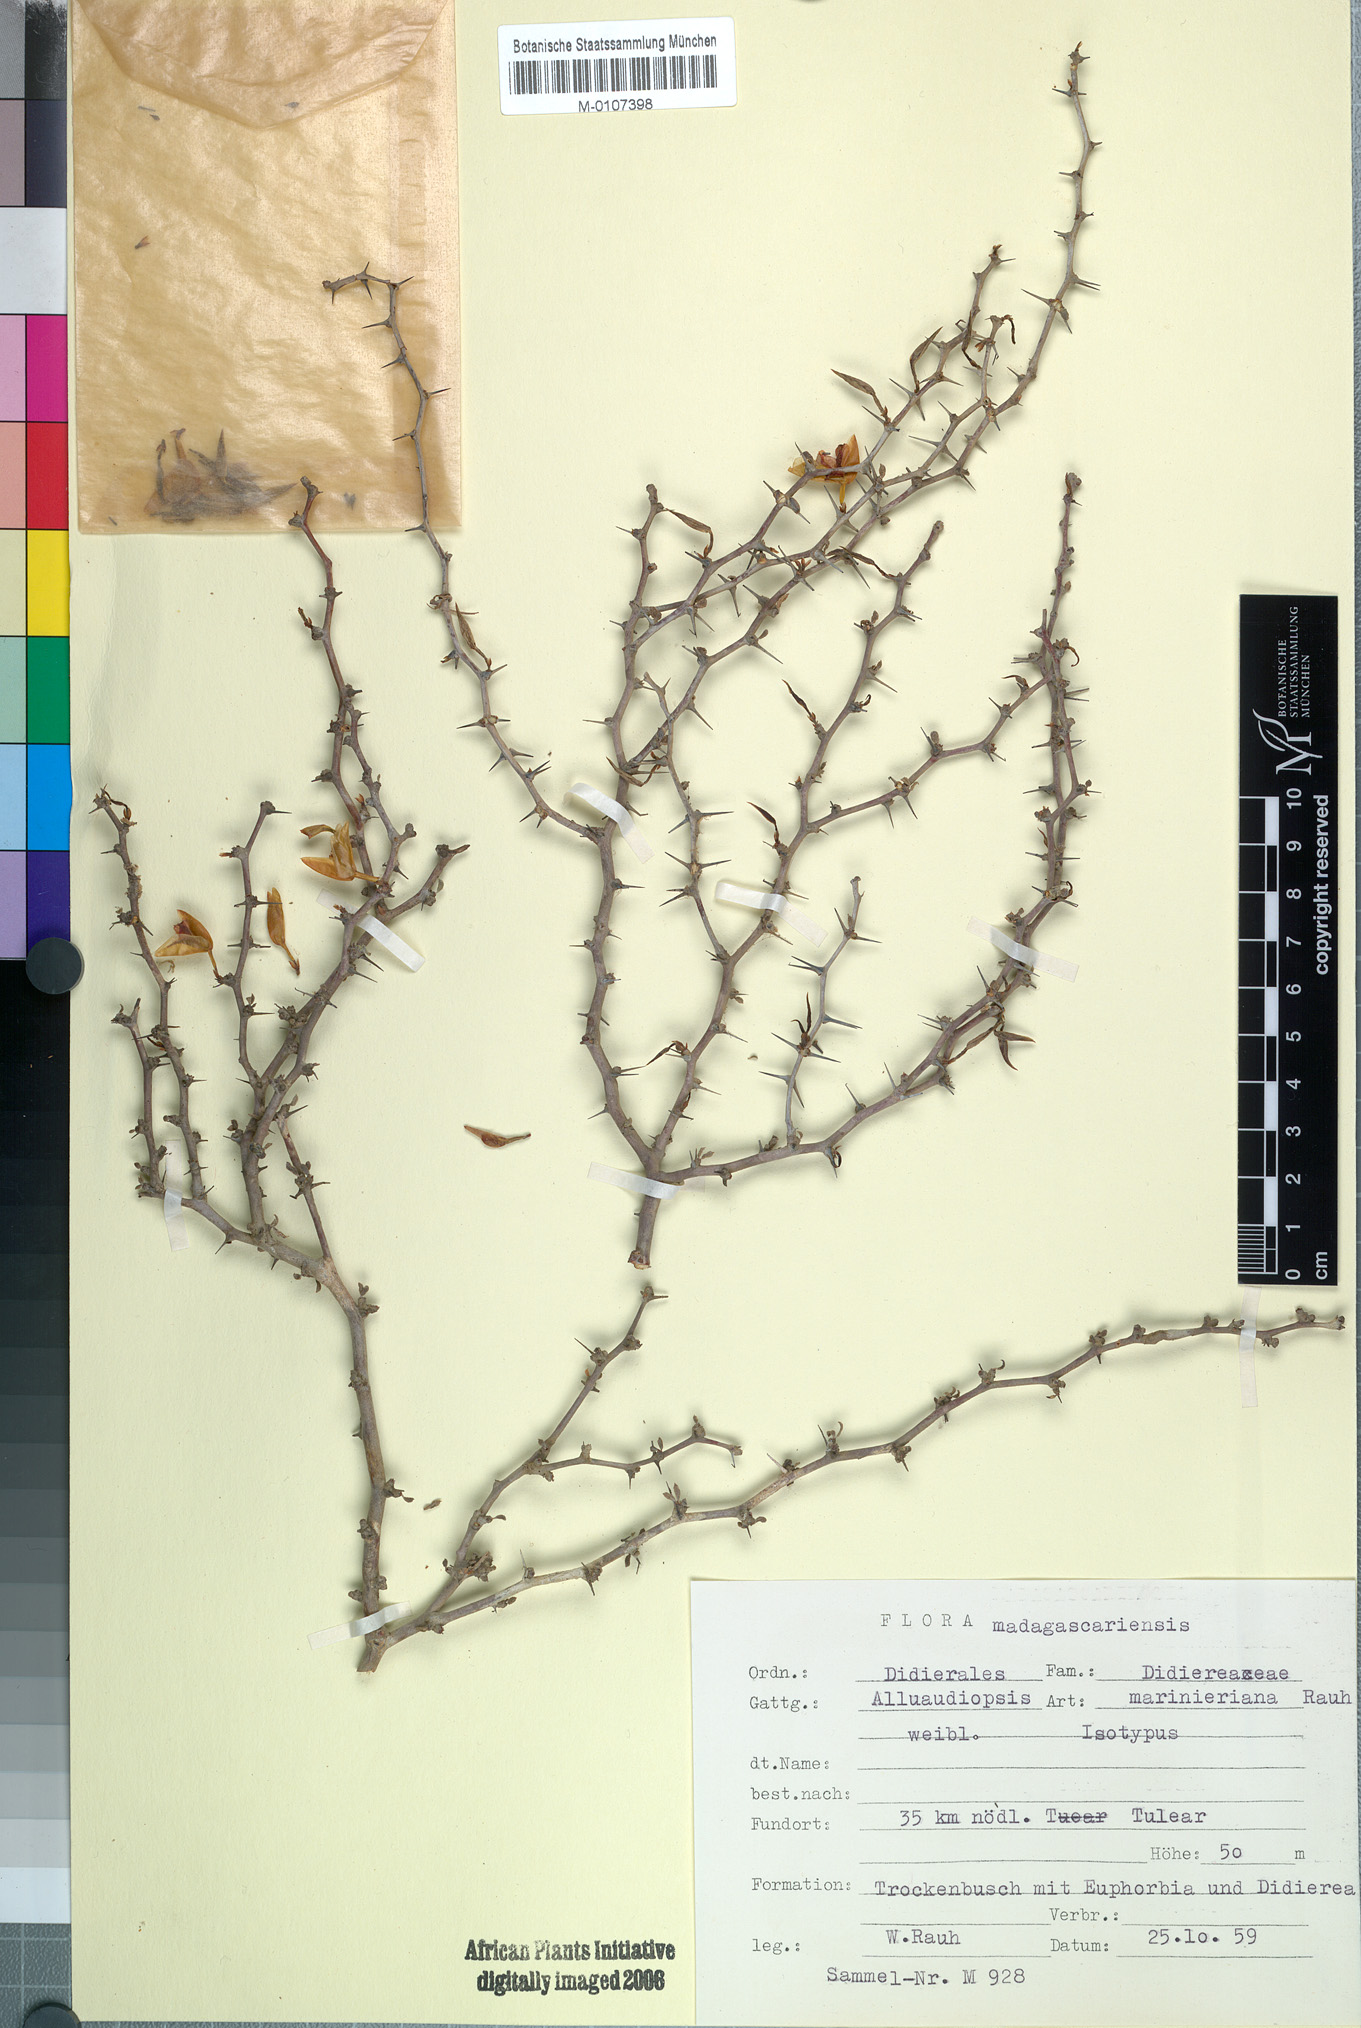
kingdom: Plantae
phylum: Tracheophyta
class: Magnoliopsida
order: Caryophyllales
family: Didiereaceae
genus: Alluaudiopsis
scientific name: Alluaudiopsis marnieriana
